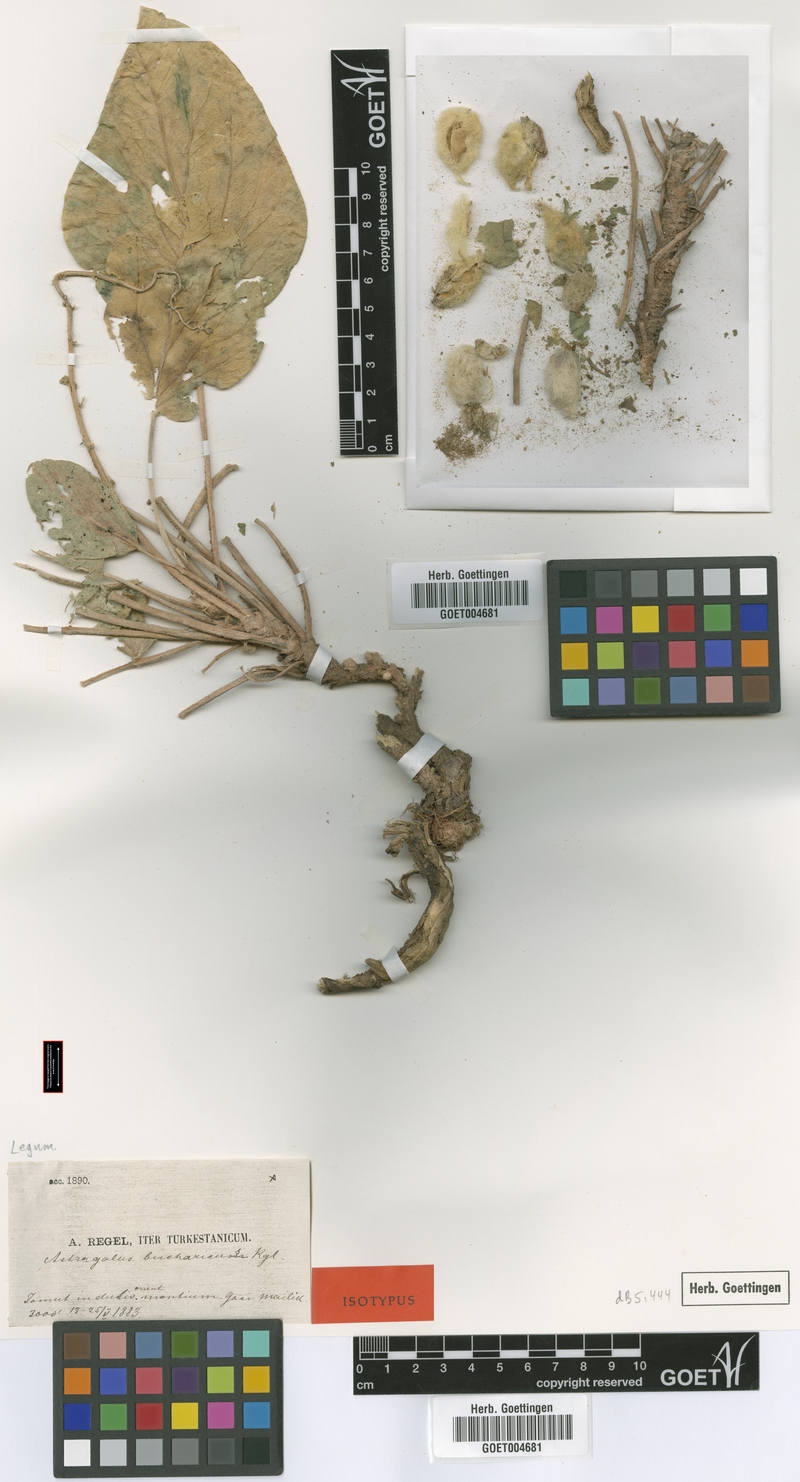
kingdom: Plantae
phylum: Tracheophyta
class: Magnoliopsida
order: Fabales
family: Fabaceae
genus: Astragalus
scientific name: Astragalus bucharicus
